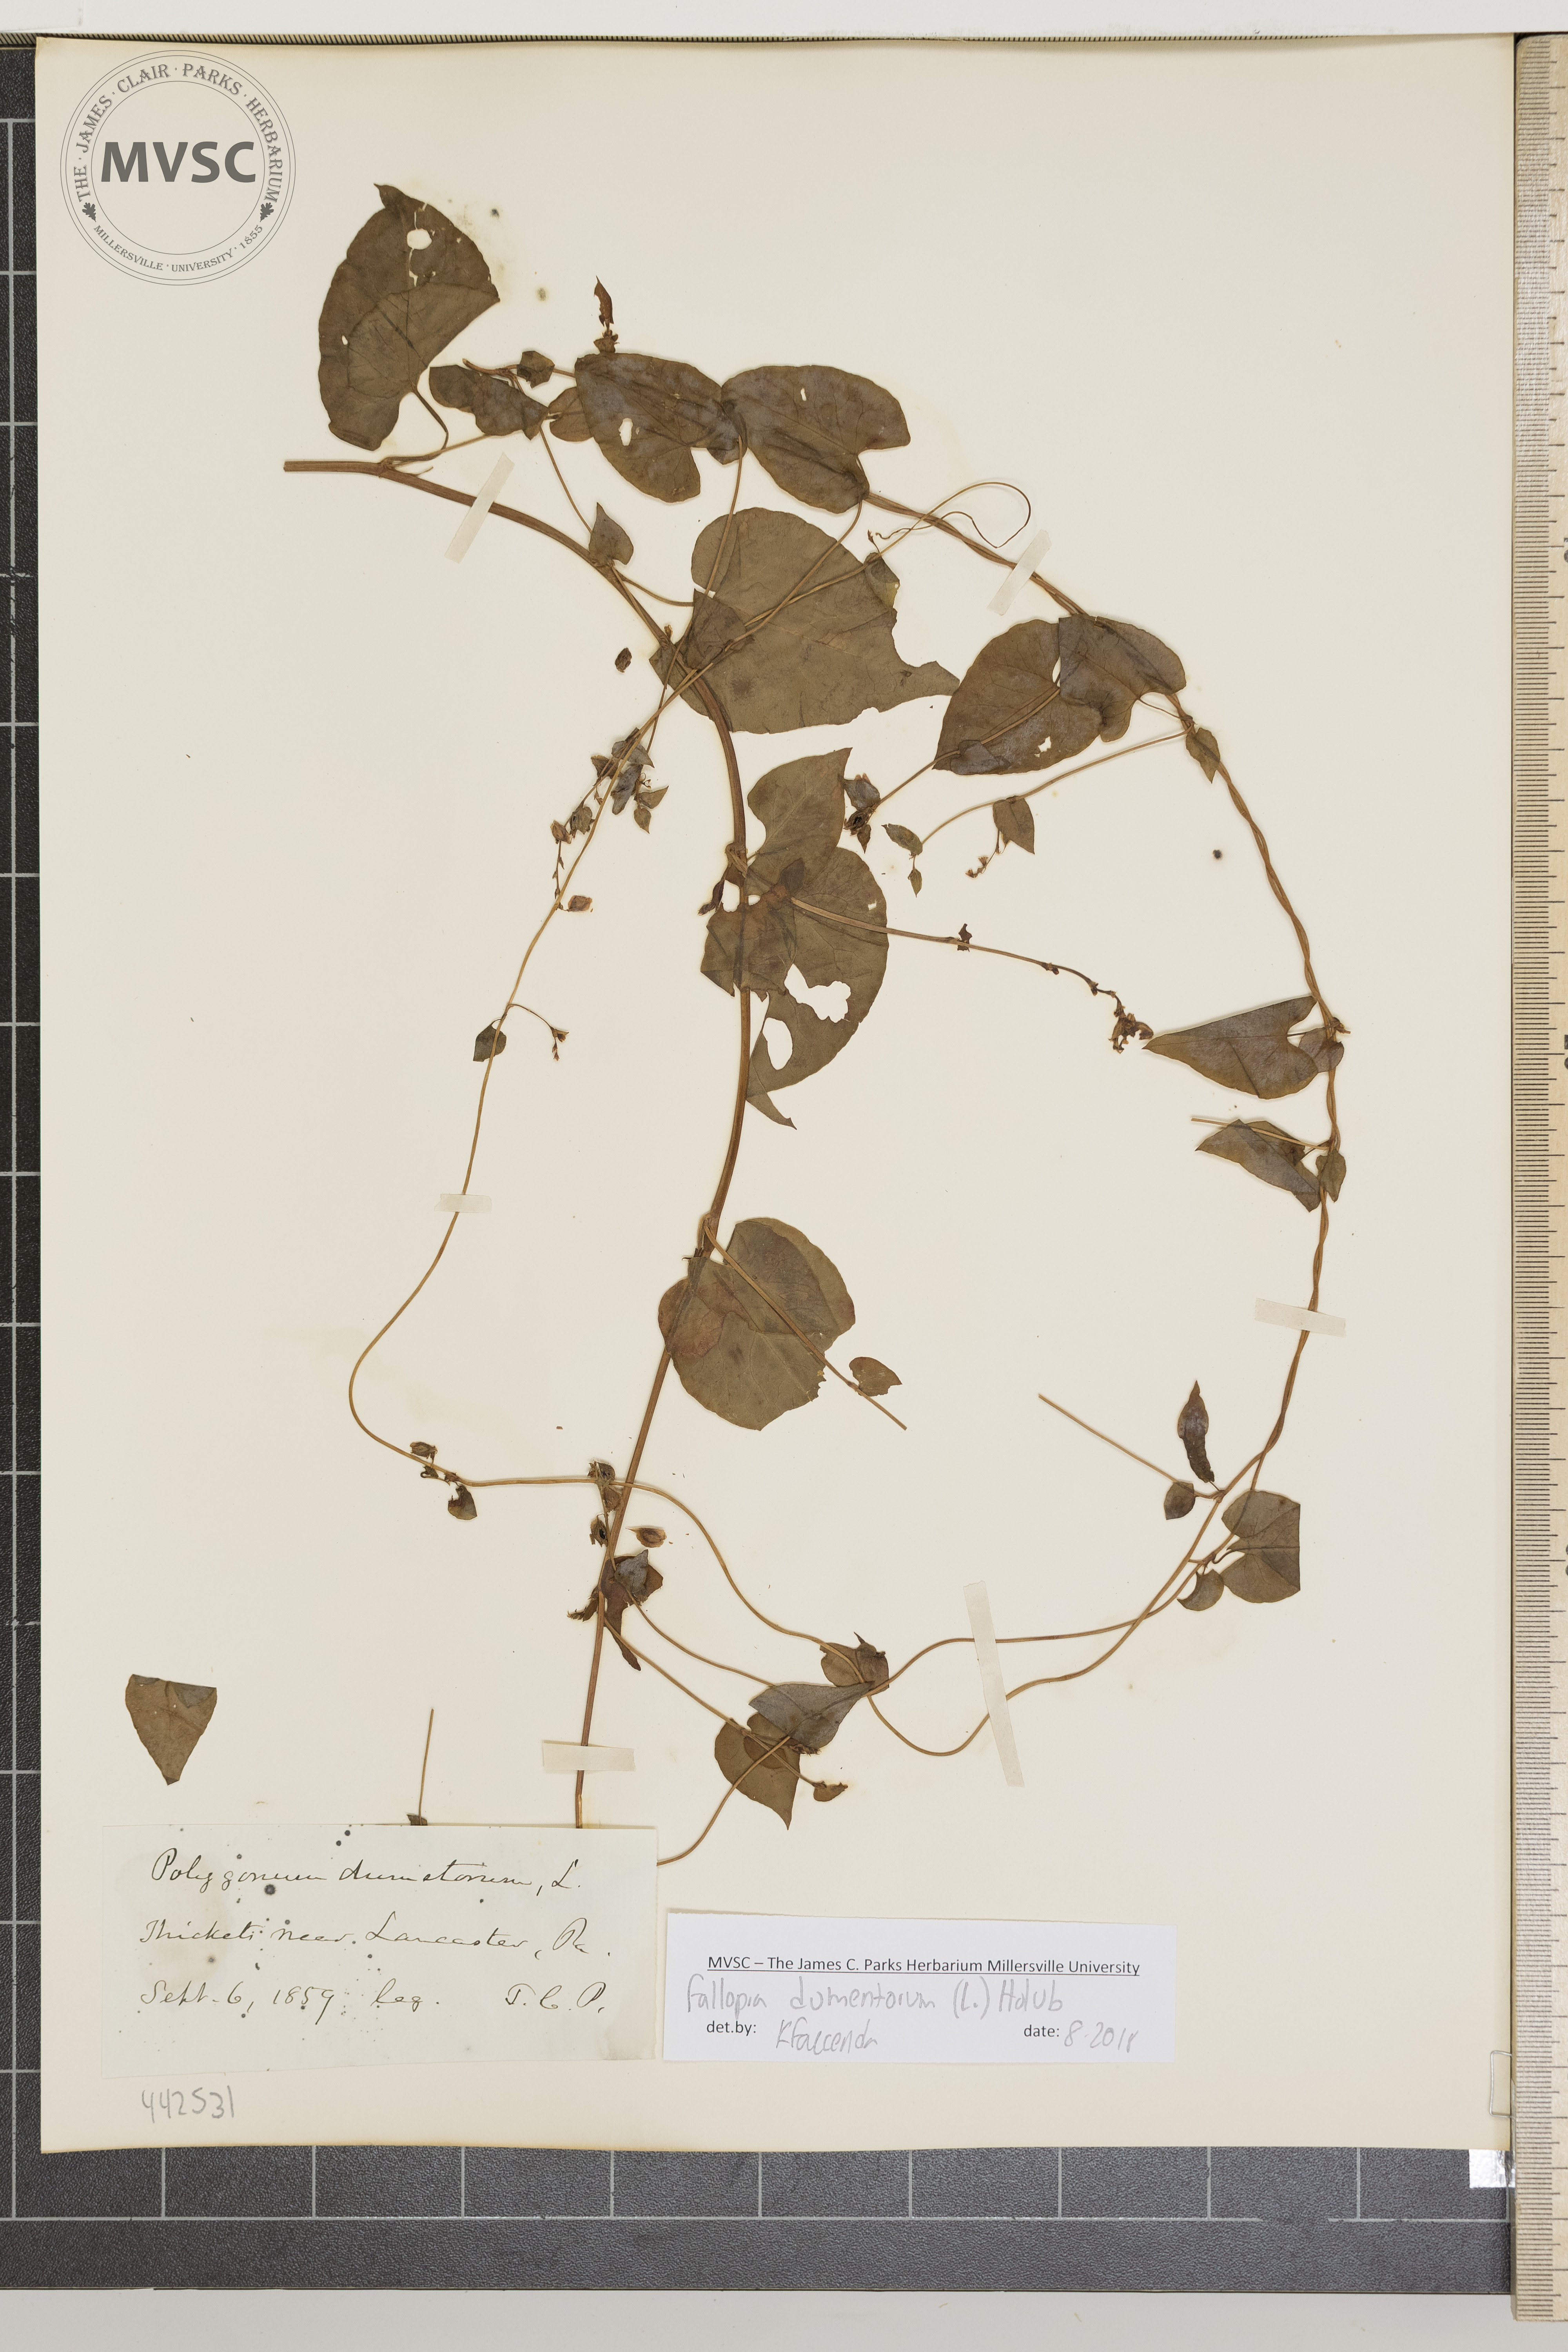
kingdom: Plantae
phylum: Tracheophyta
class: Magnoliopsida
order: Caryophyllales
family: Polygonaceae
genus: Fallopia
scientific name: Fallopia scandens
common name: Climbing false buckwheat
